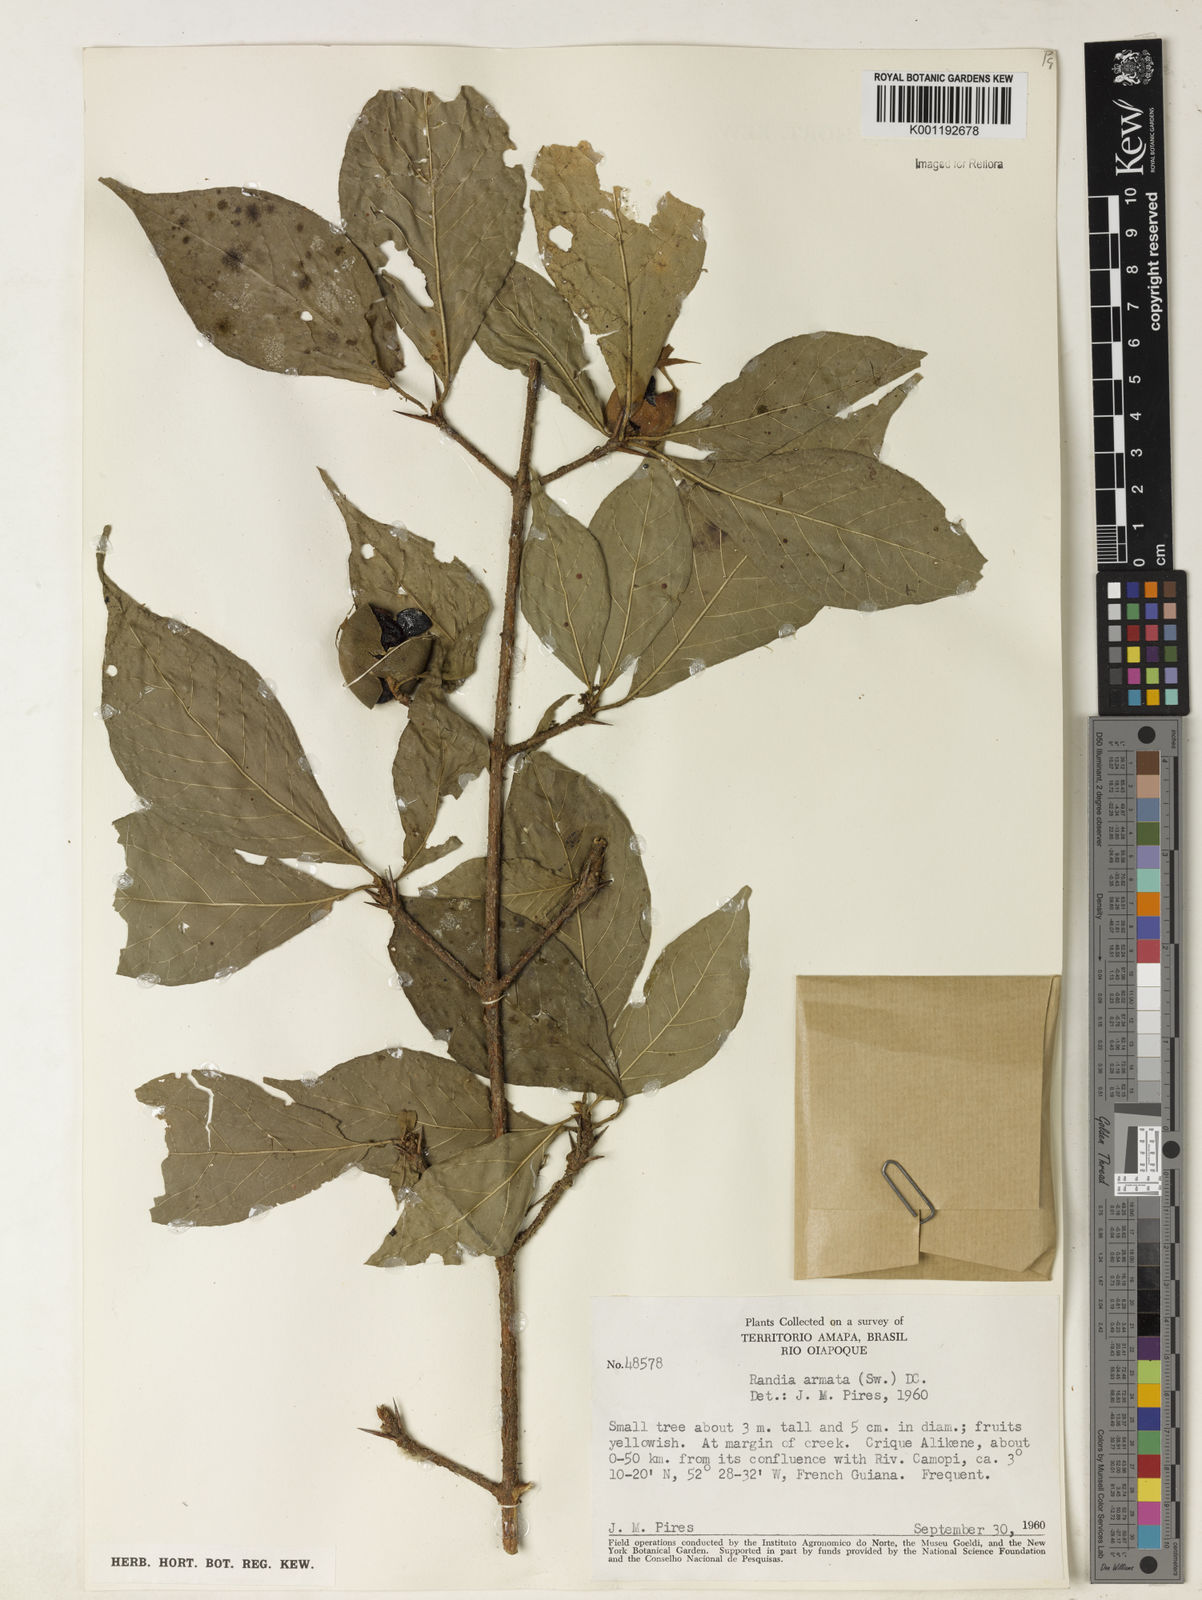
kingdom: Plantae
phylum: Tracheophyta
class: Magnoliopsida
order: Gentianales
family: Rubiaceae
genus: Randia
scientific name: Randia armata
